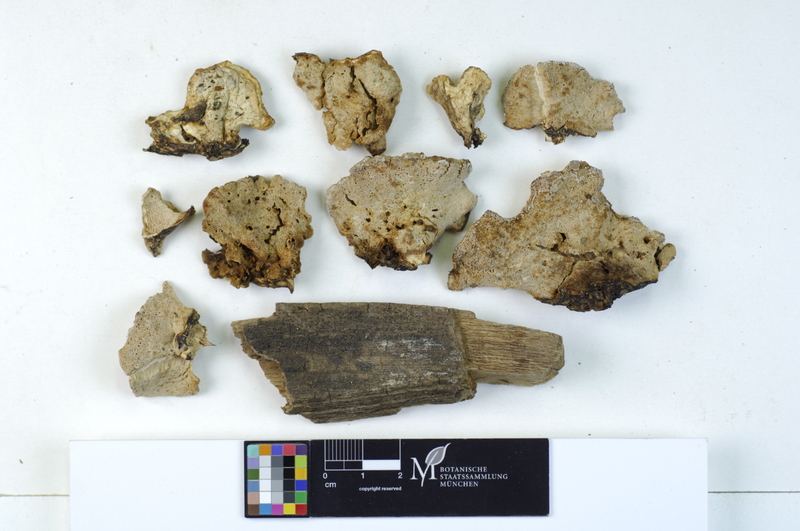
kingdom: Fungi
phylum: Basidiomycota
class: Agaricomycetes
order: Polyporales
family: Dacryobolaceae
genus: Postia
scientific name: Postia balsamea
